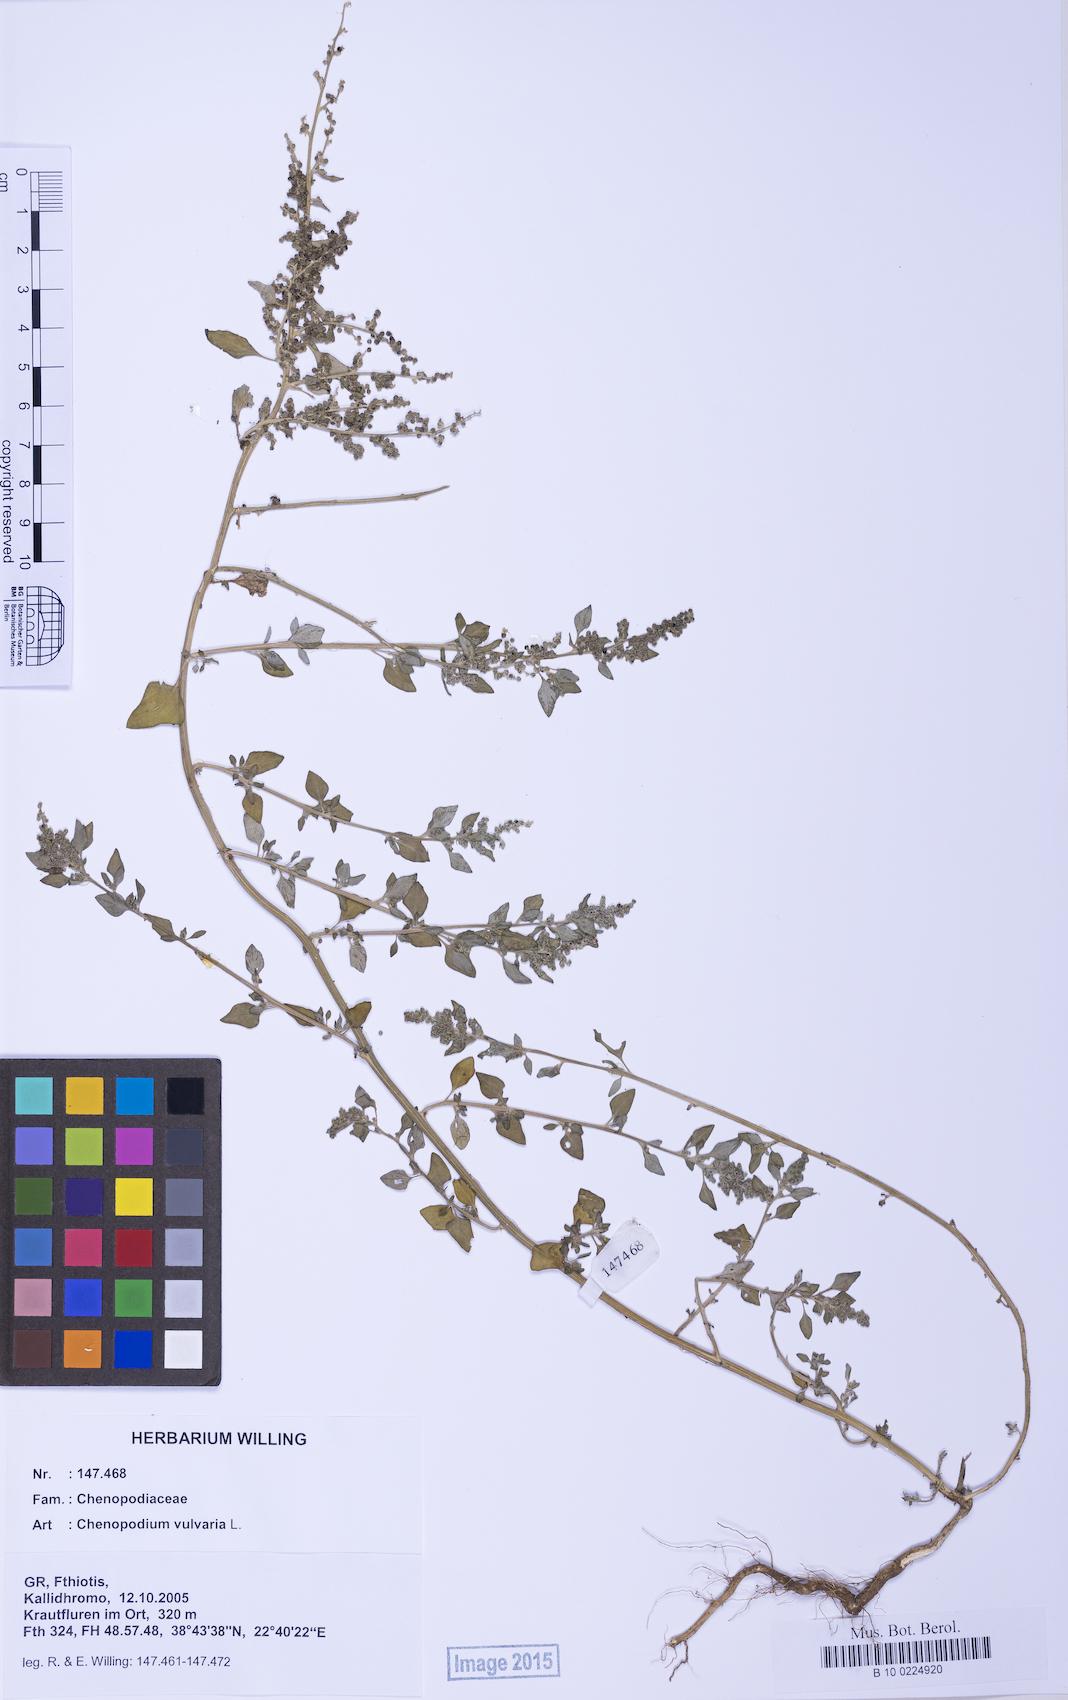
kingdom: Plantae
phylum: Tracheophyta
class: Magnoliopsida
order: Caryophyllales
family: Amaranthaceae
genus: Chenopodium
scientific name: Chenopodium vulvaria
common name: Stinking goosefoot
